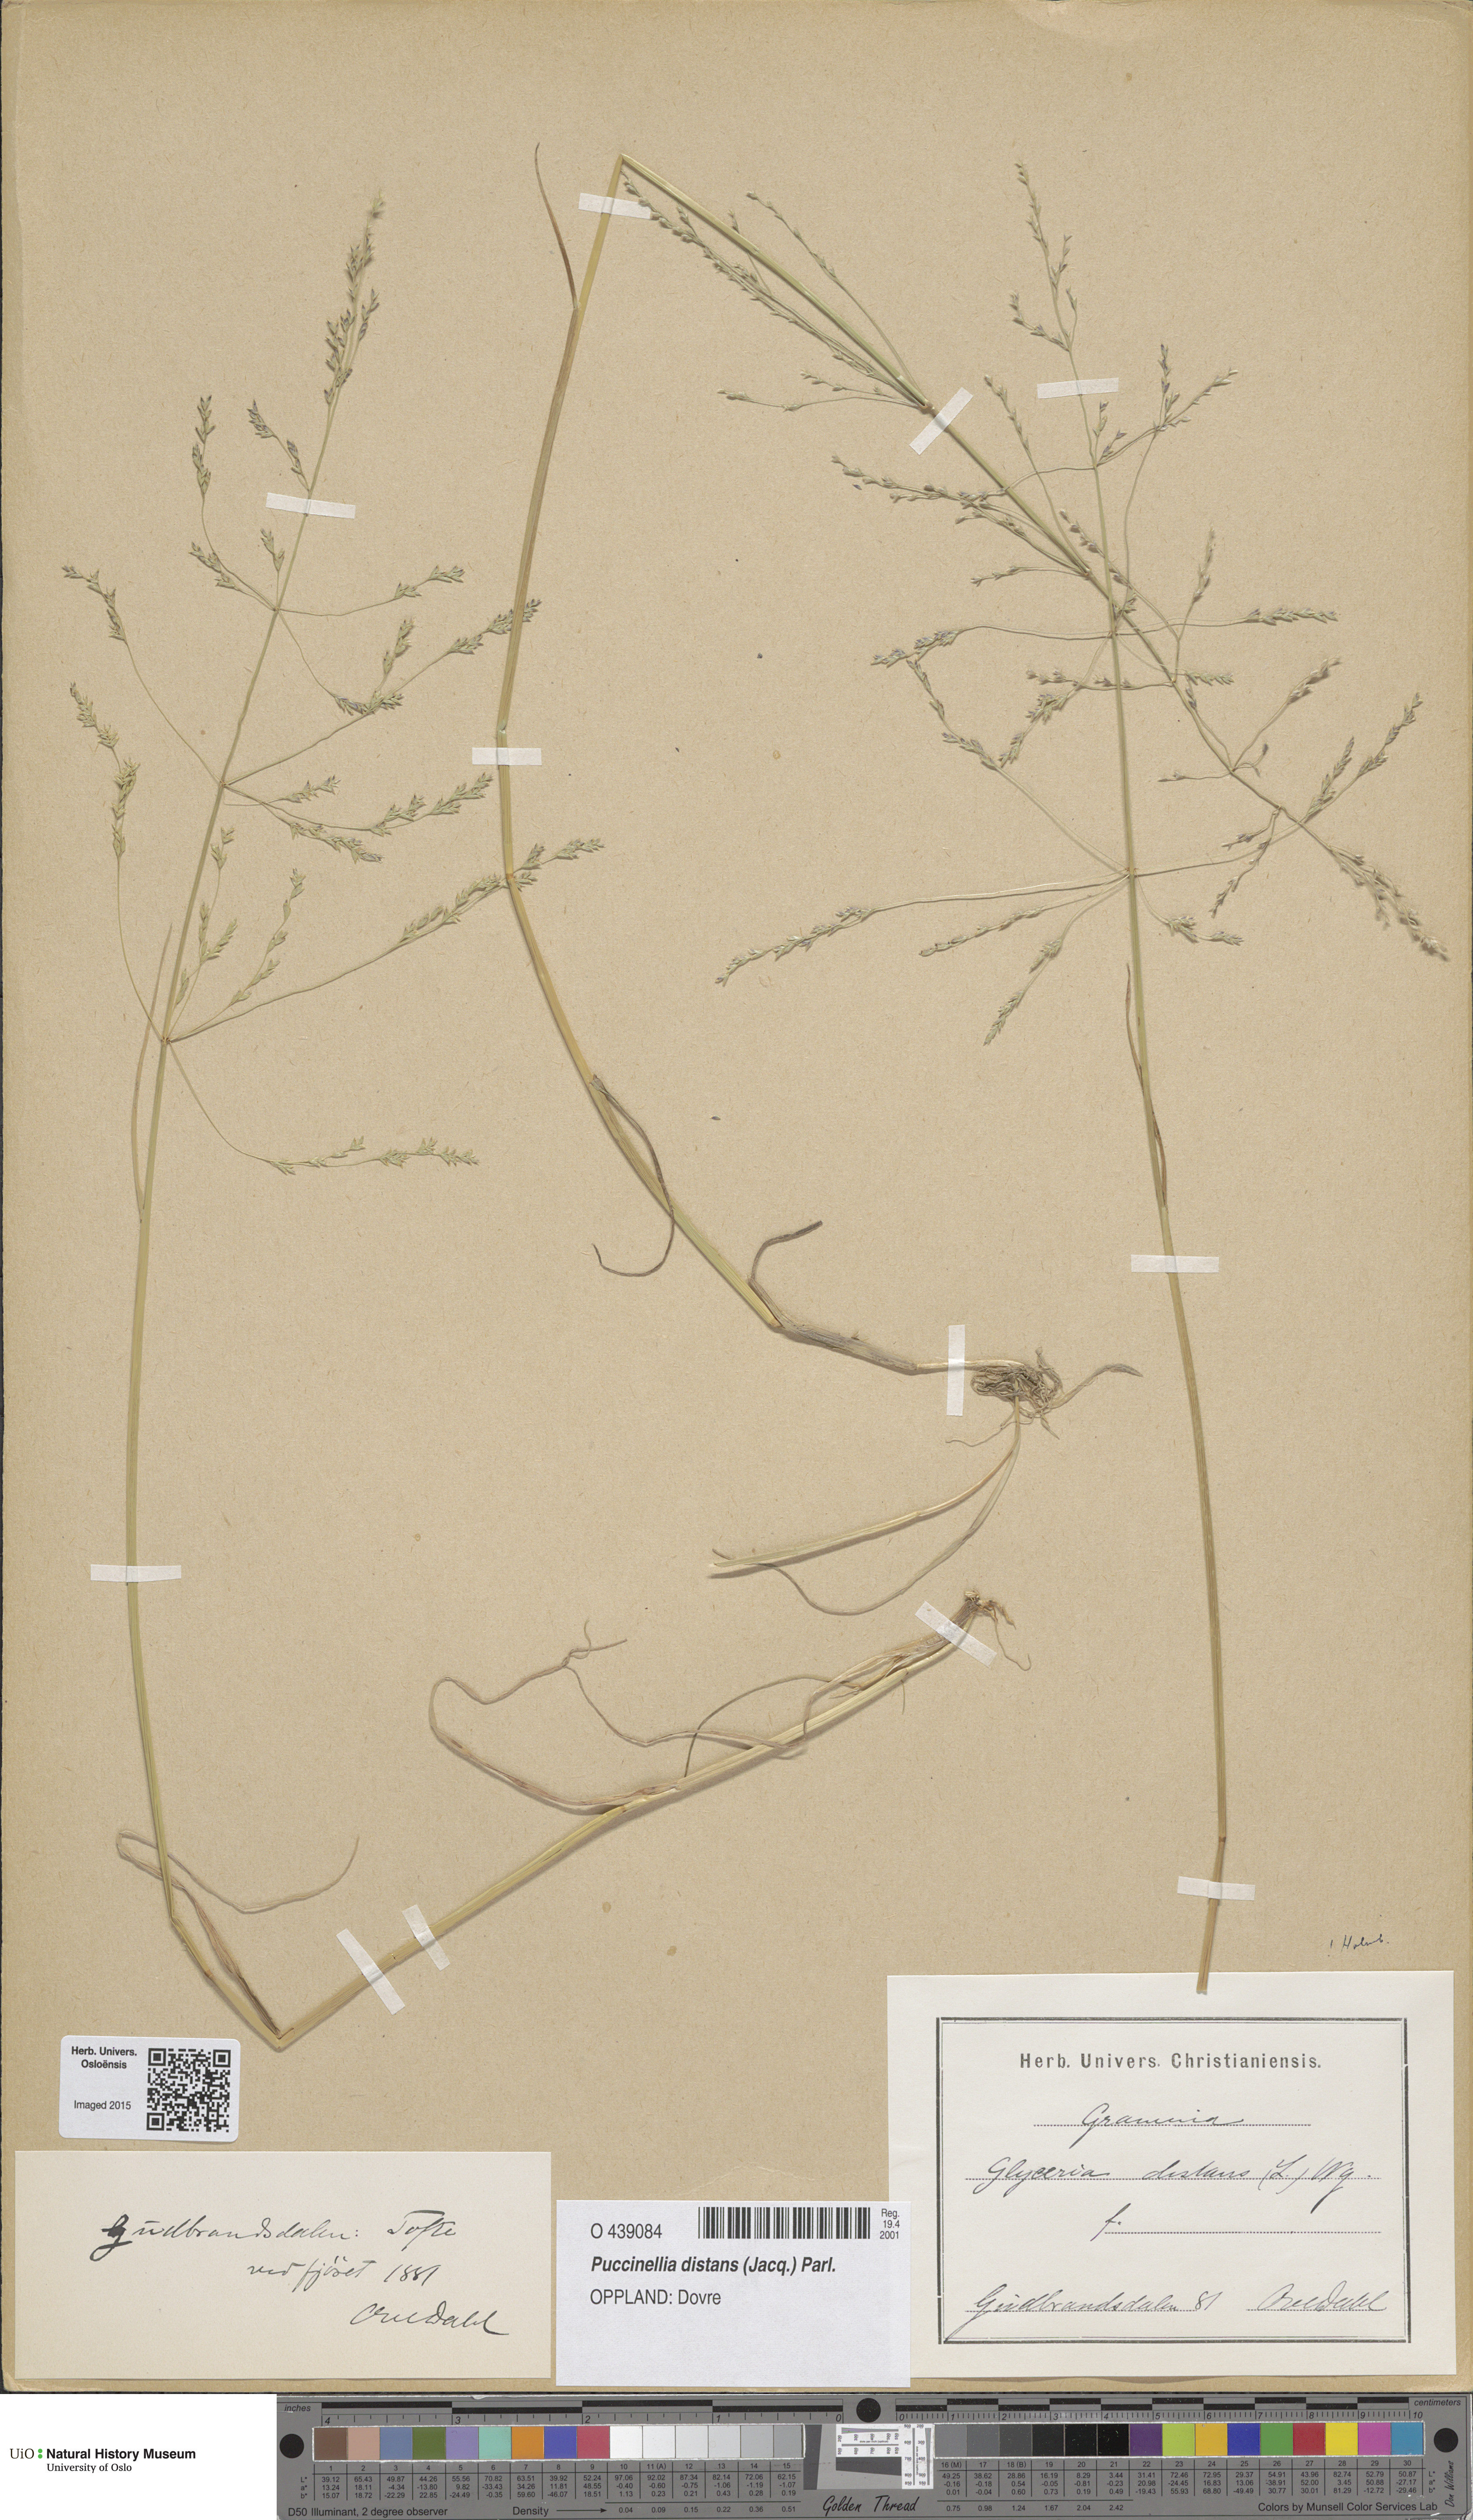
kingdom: Plantae
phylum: Tracheophyta
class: Liliopsida
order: Poales
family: Poaceae
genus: Puccinellia
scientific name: Puccinellia distans
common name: Weeping alkaligrass
